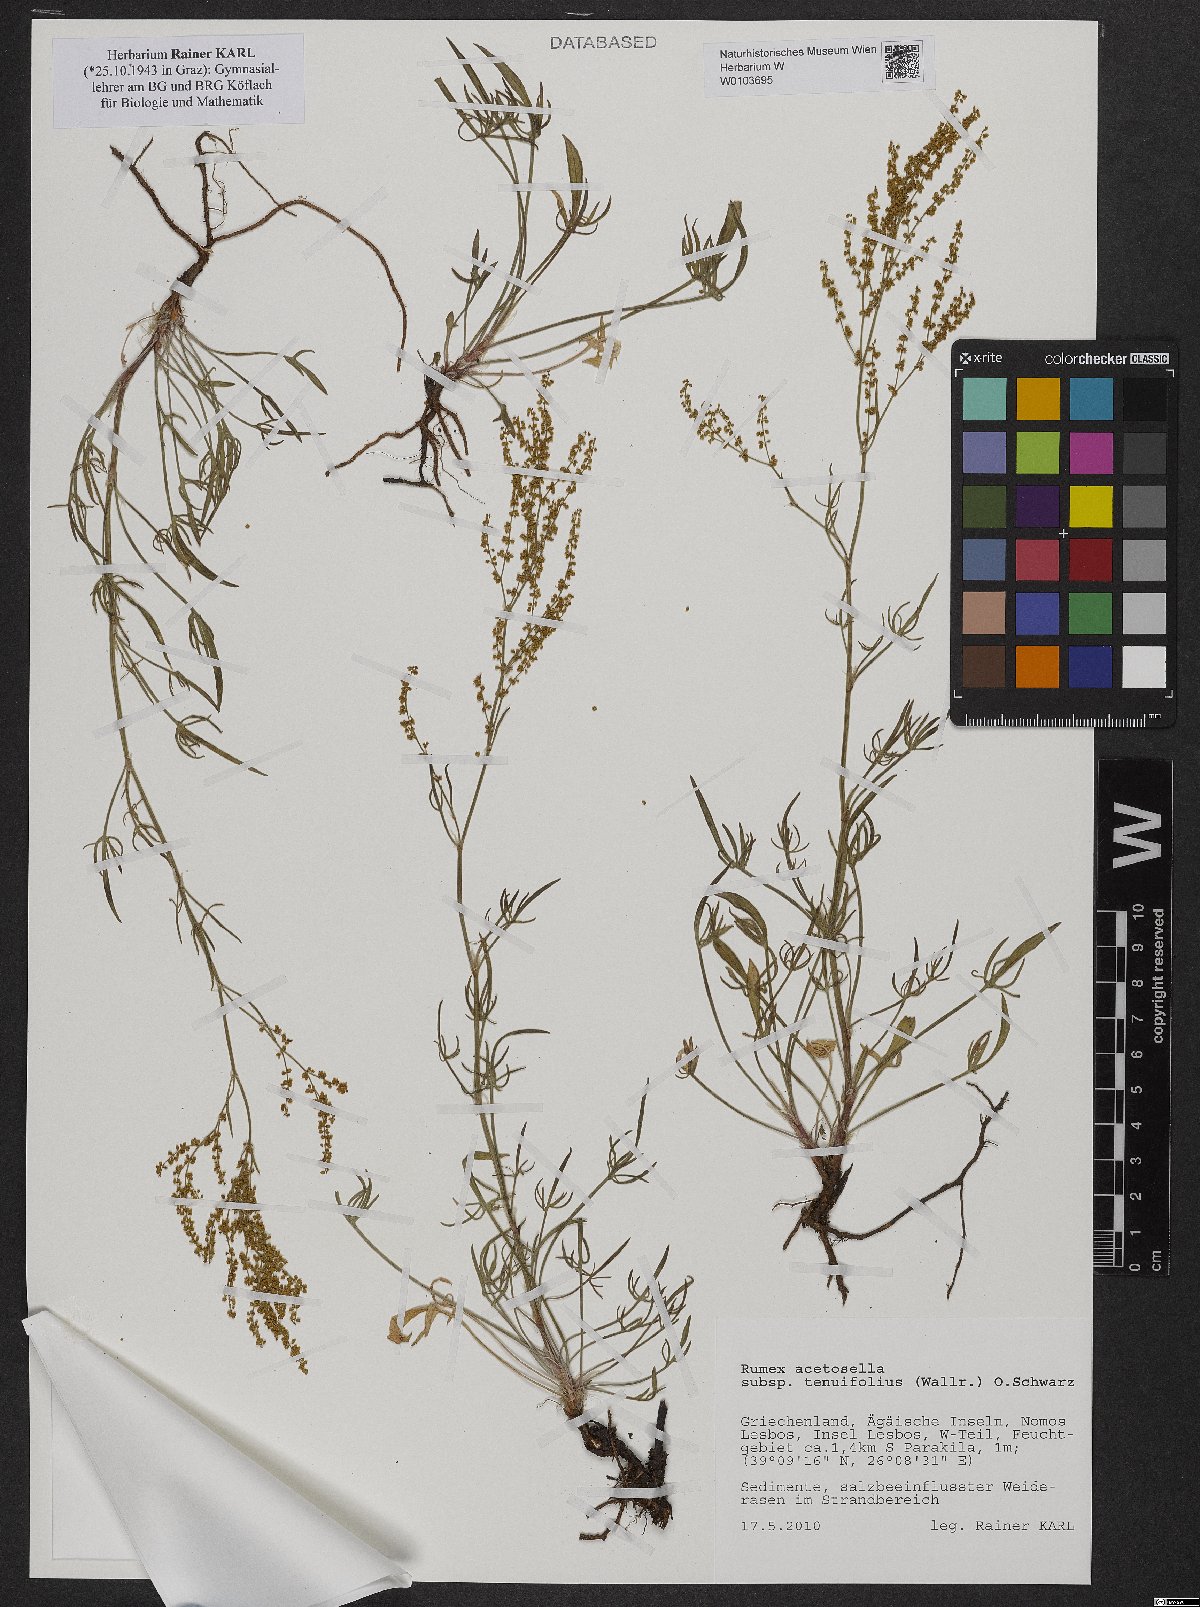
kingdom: Plantae
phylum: Tracheophyta
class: Magnoliopsida
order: Caryophyllales
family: Polygonaceae
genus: Rumex
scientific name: Rumex acetosella
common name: Common sheep sorrel
